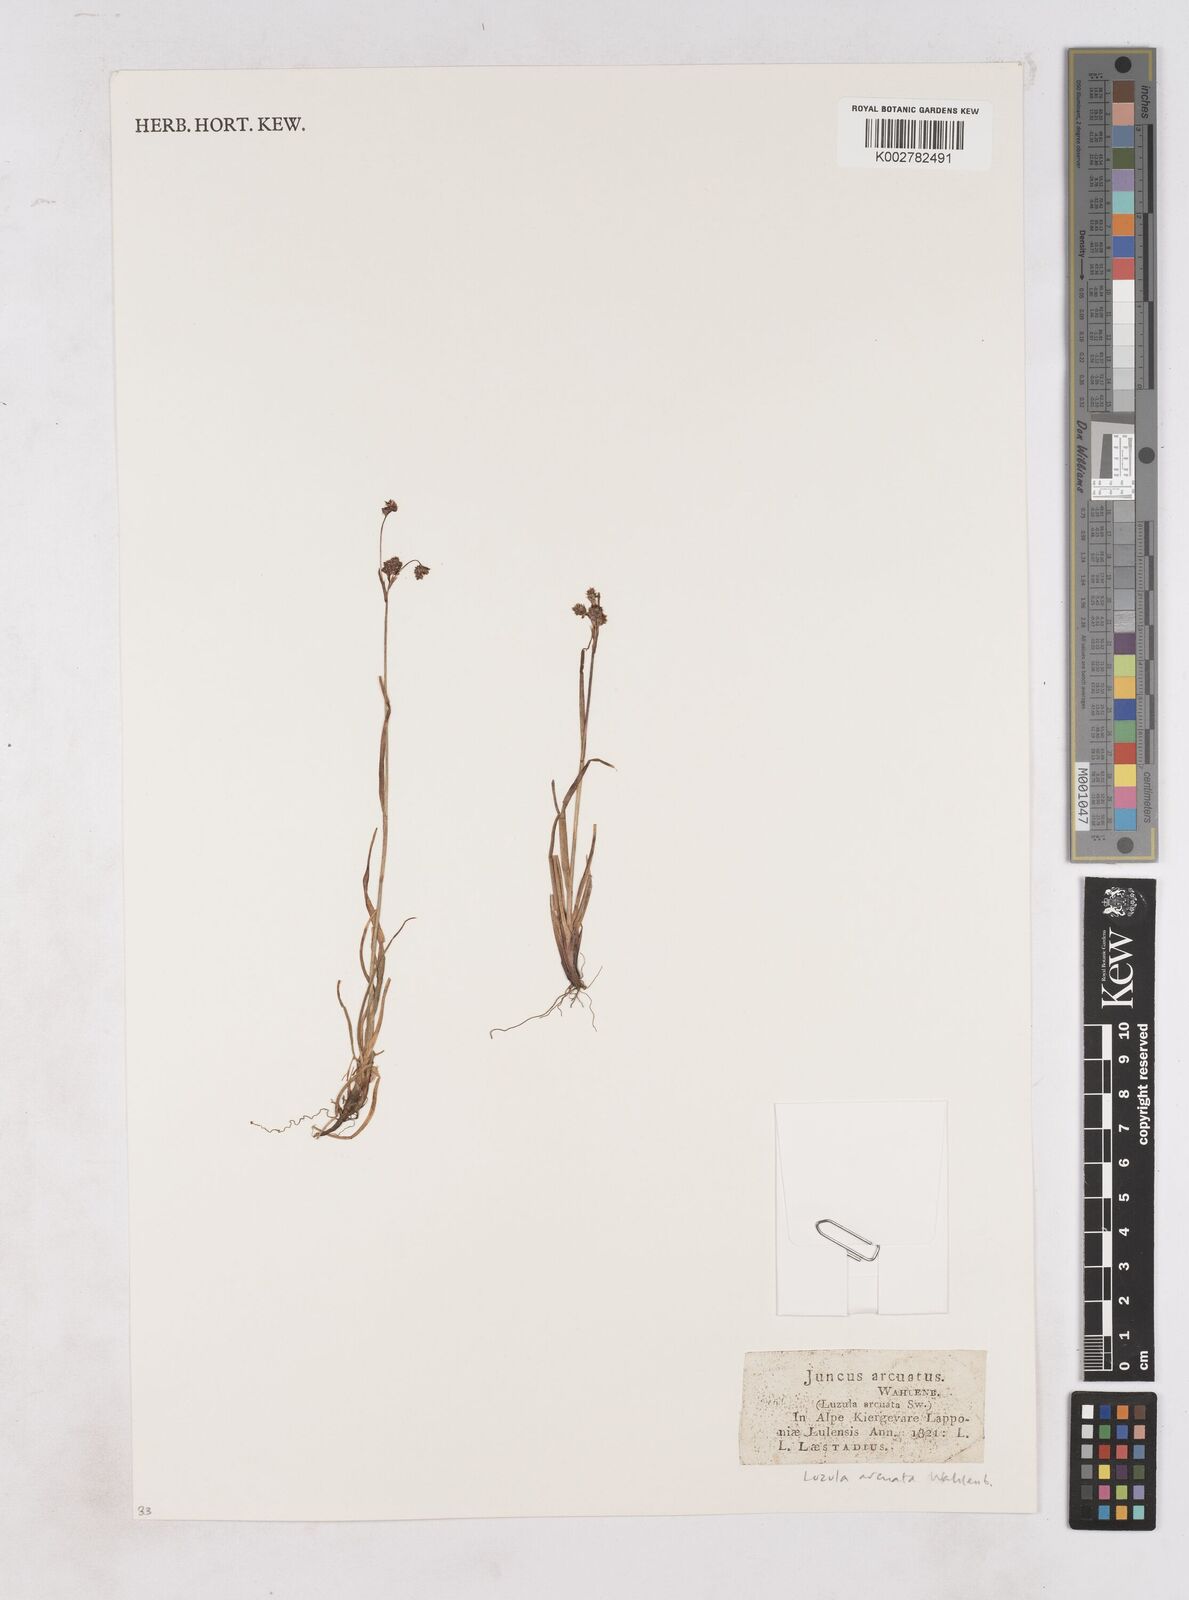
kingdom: Plantae
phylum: Tracheophyta
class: Liliopsida
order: Poales
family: Juncaceae
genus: Luzula
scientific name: Luzula arcuata
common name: Curved wood-rush
